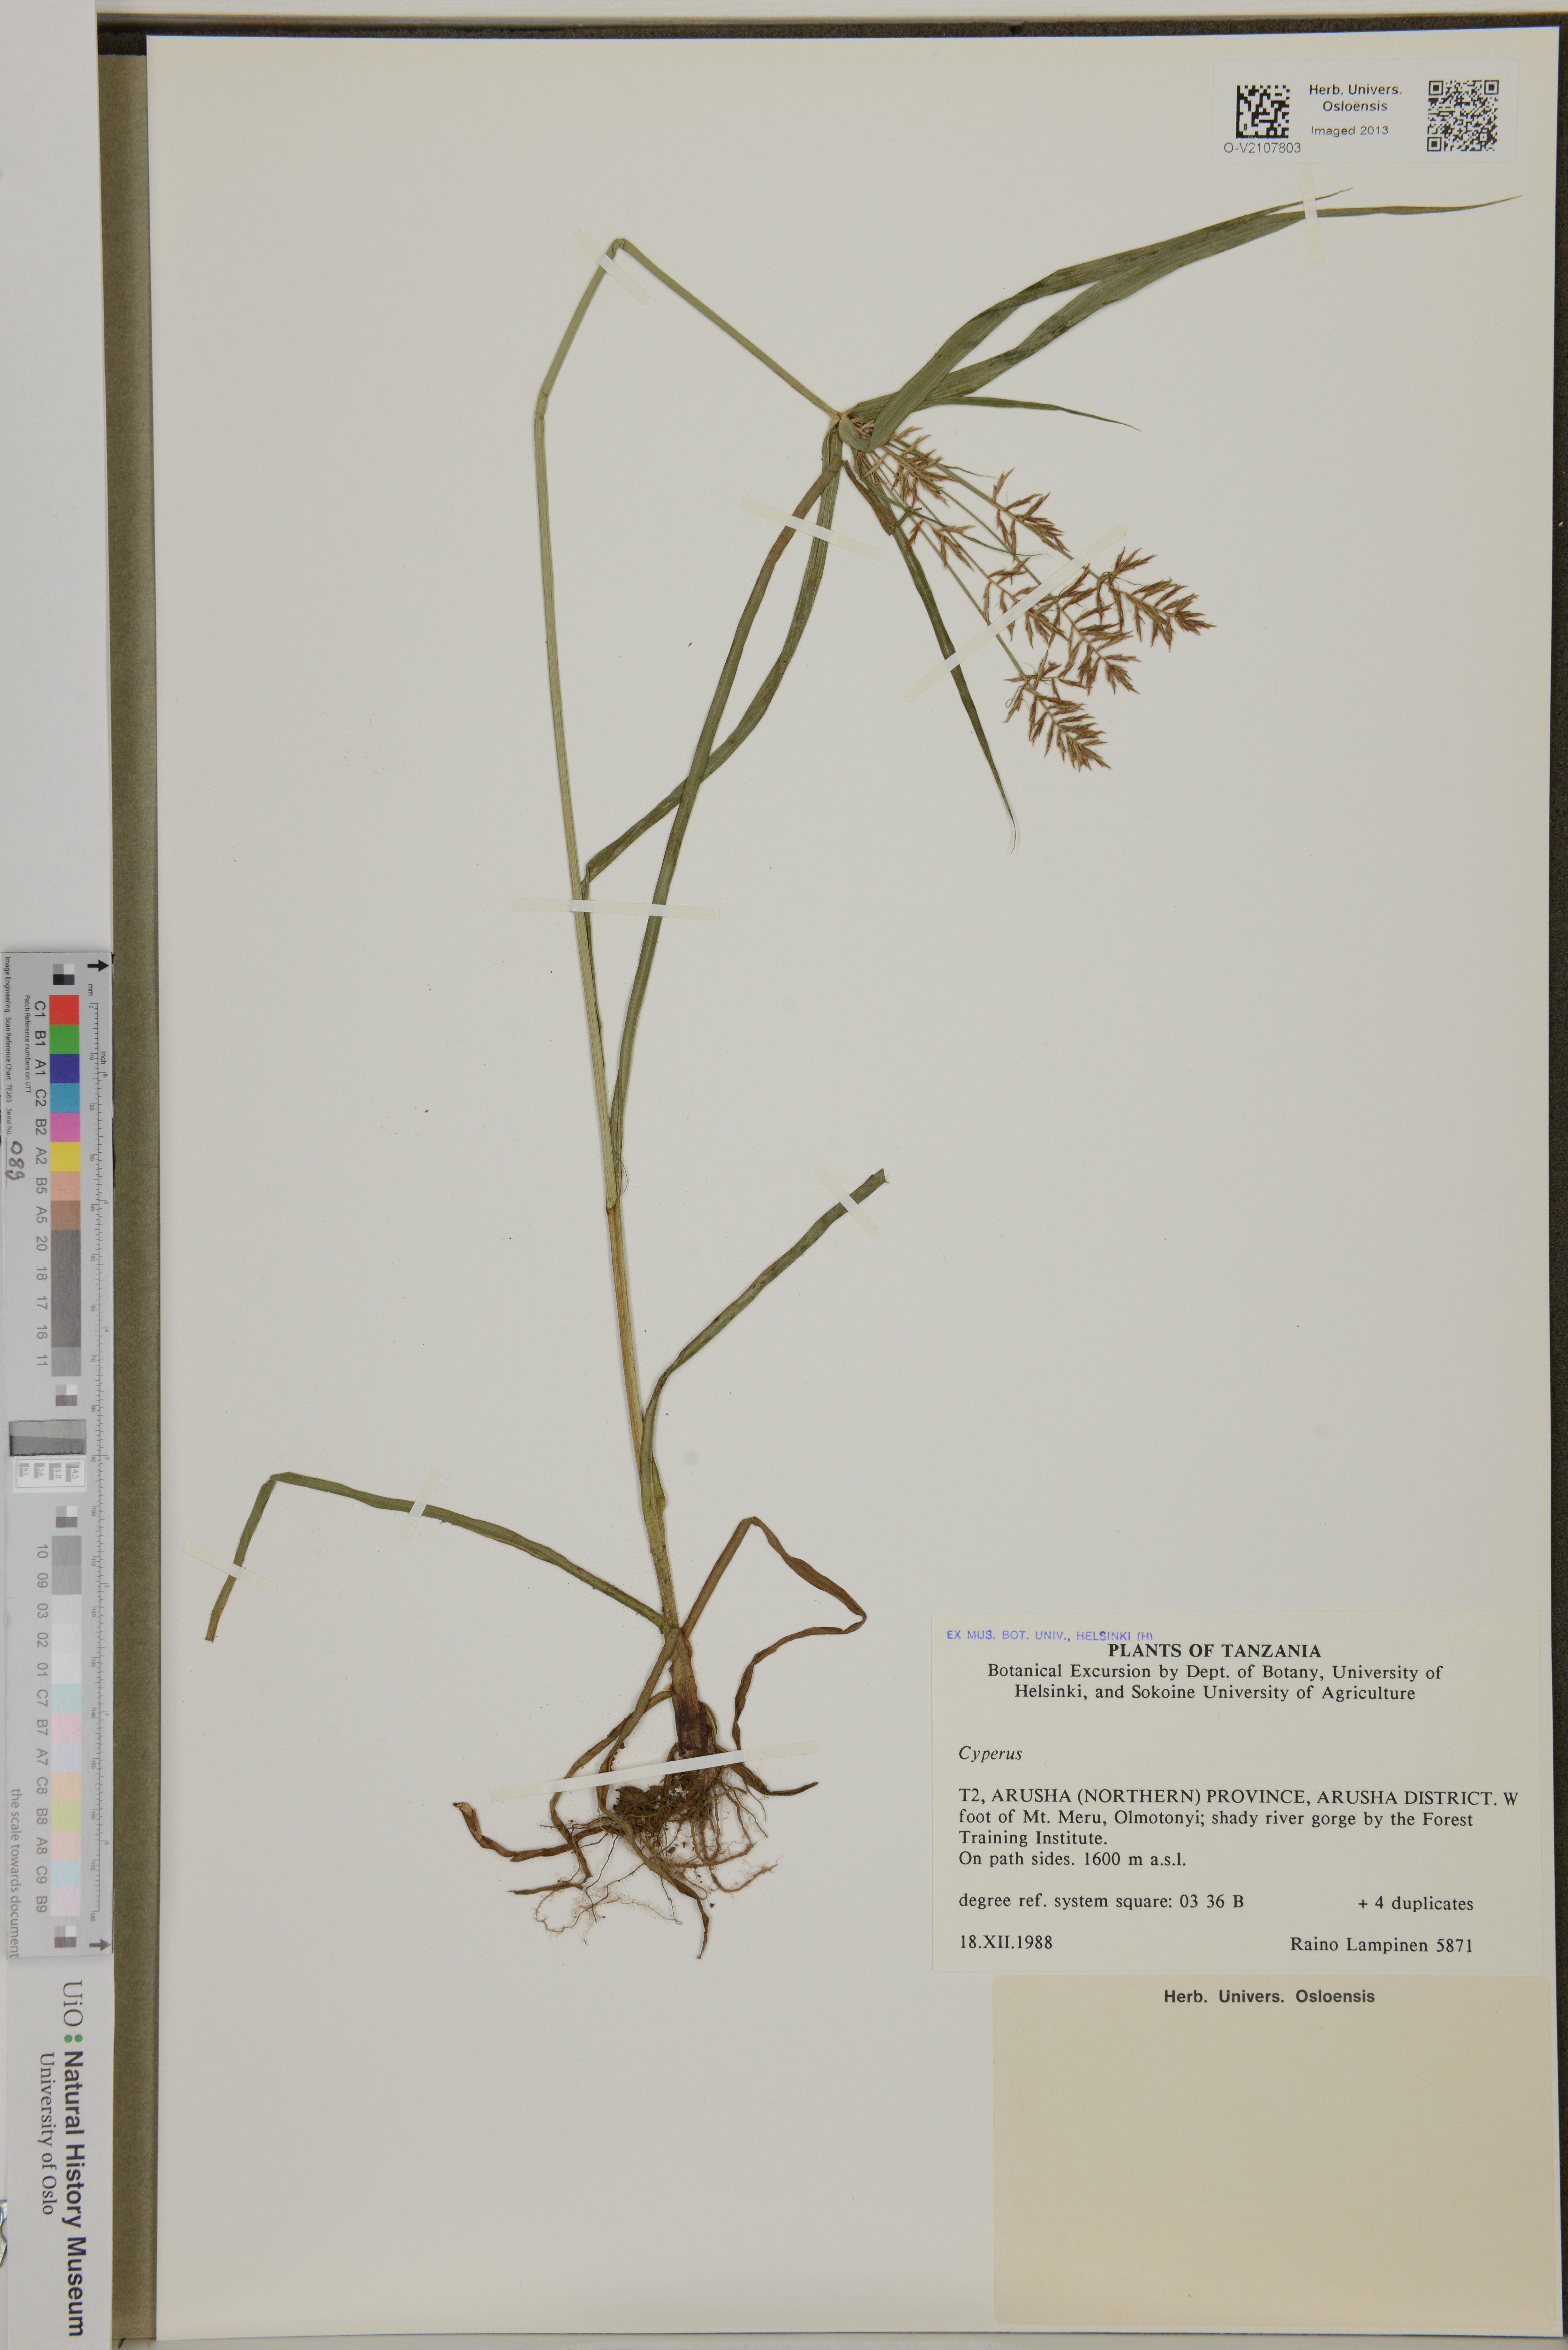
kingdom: Plantae
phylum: Tracheophyta
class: Liliopsida
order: Poales
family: Cyperaceae
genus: Cyperus
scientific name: Cyperus
